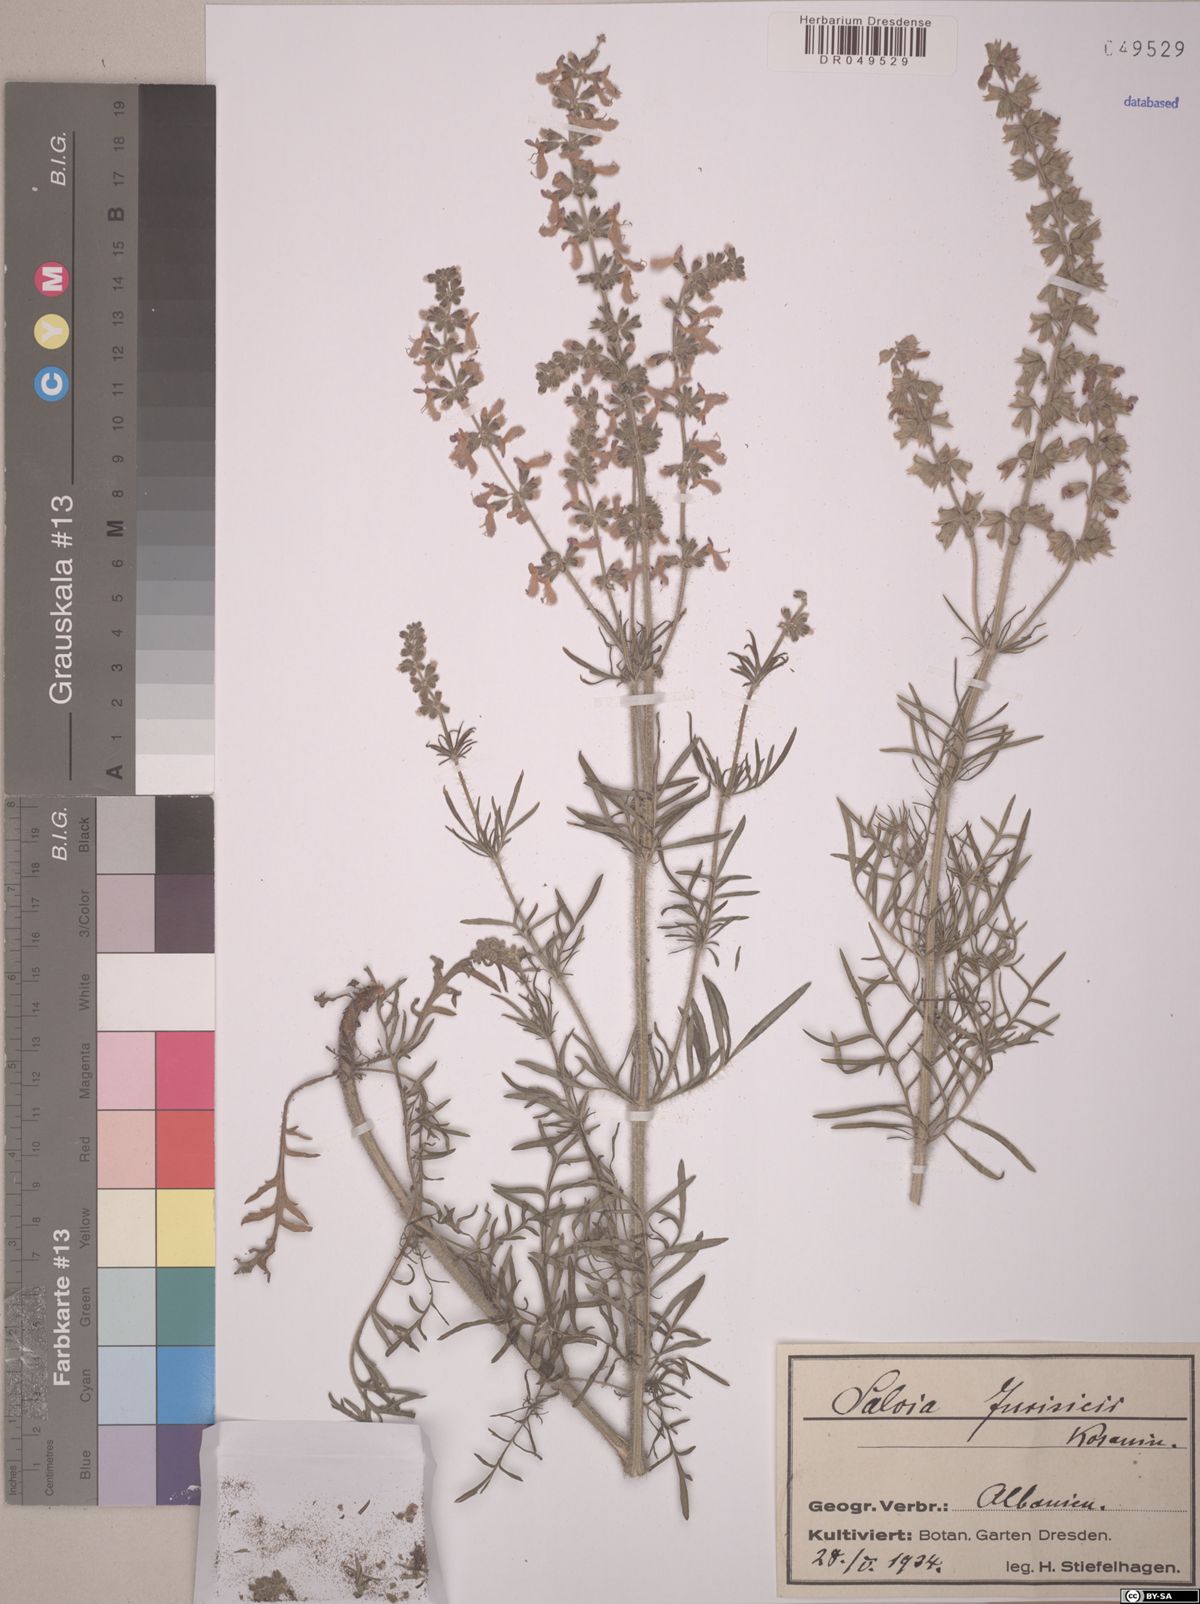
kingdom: Plantae
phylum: Tracheophyta
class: Magnoliopsida
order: Lamiales
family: Lamiaceae
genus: Salvia
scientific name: Salvia jurisicii
